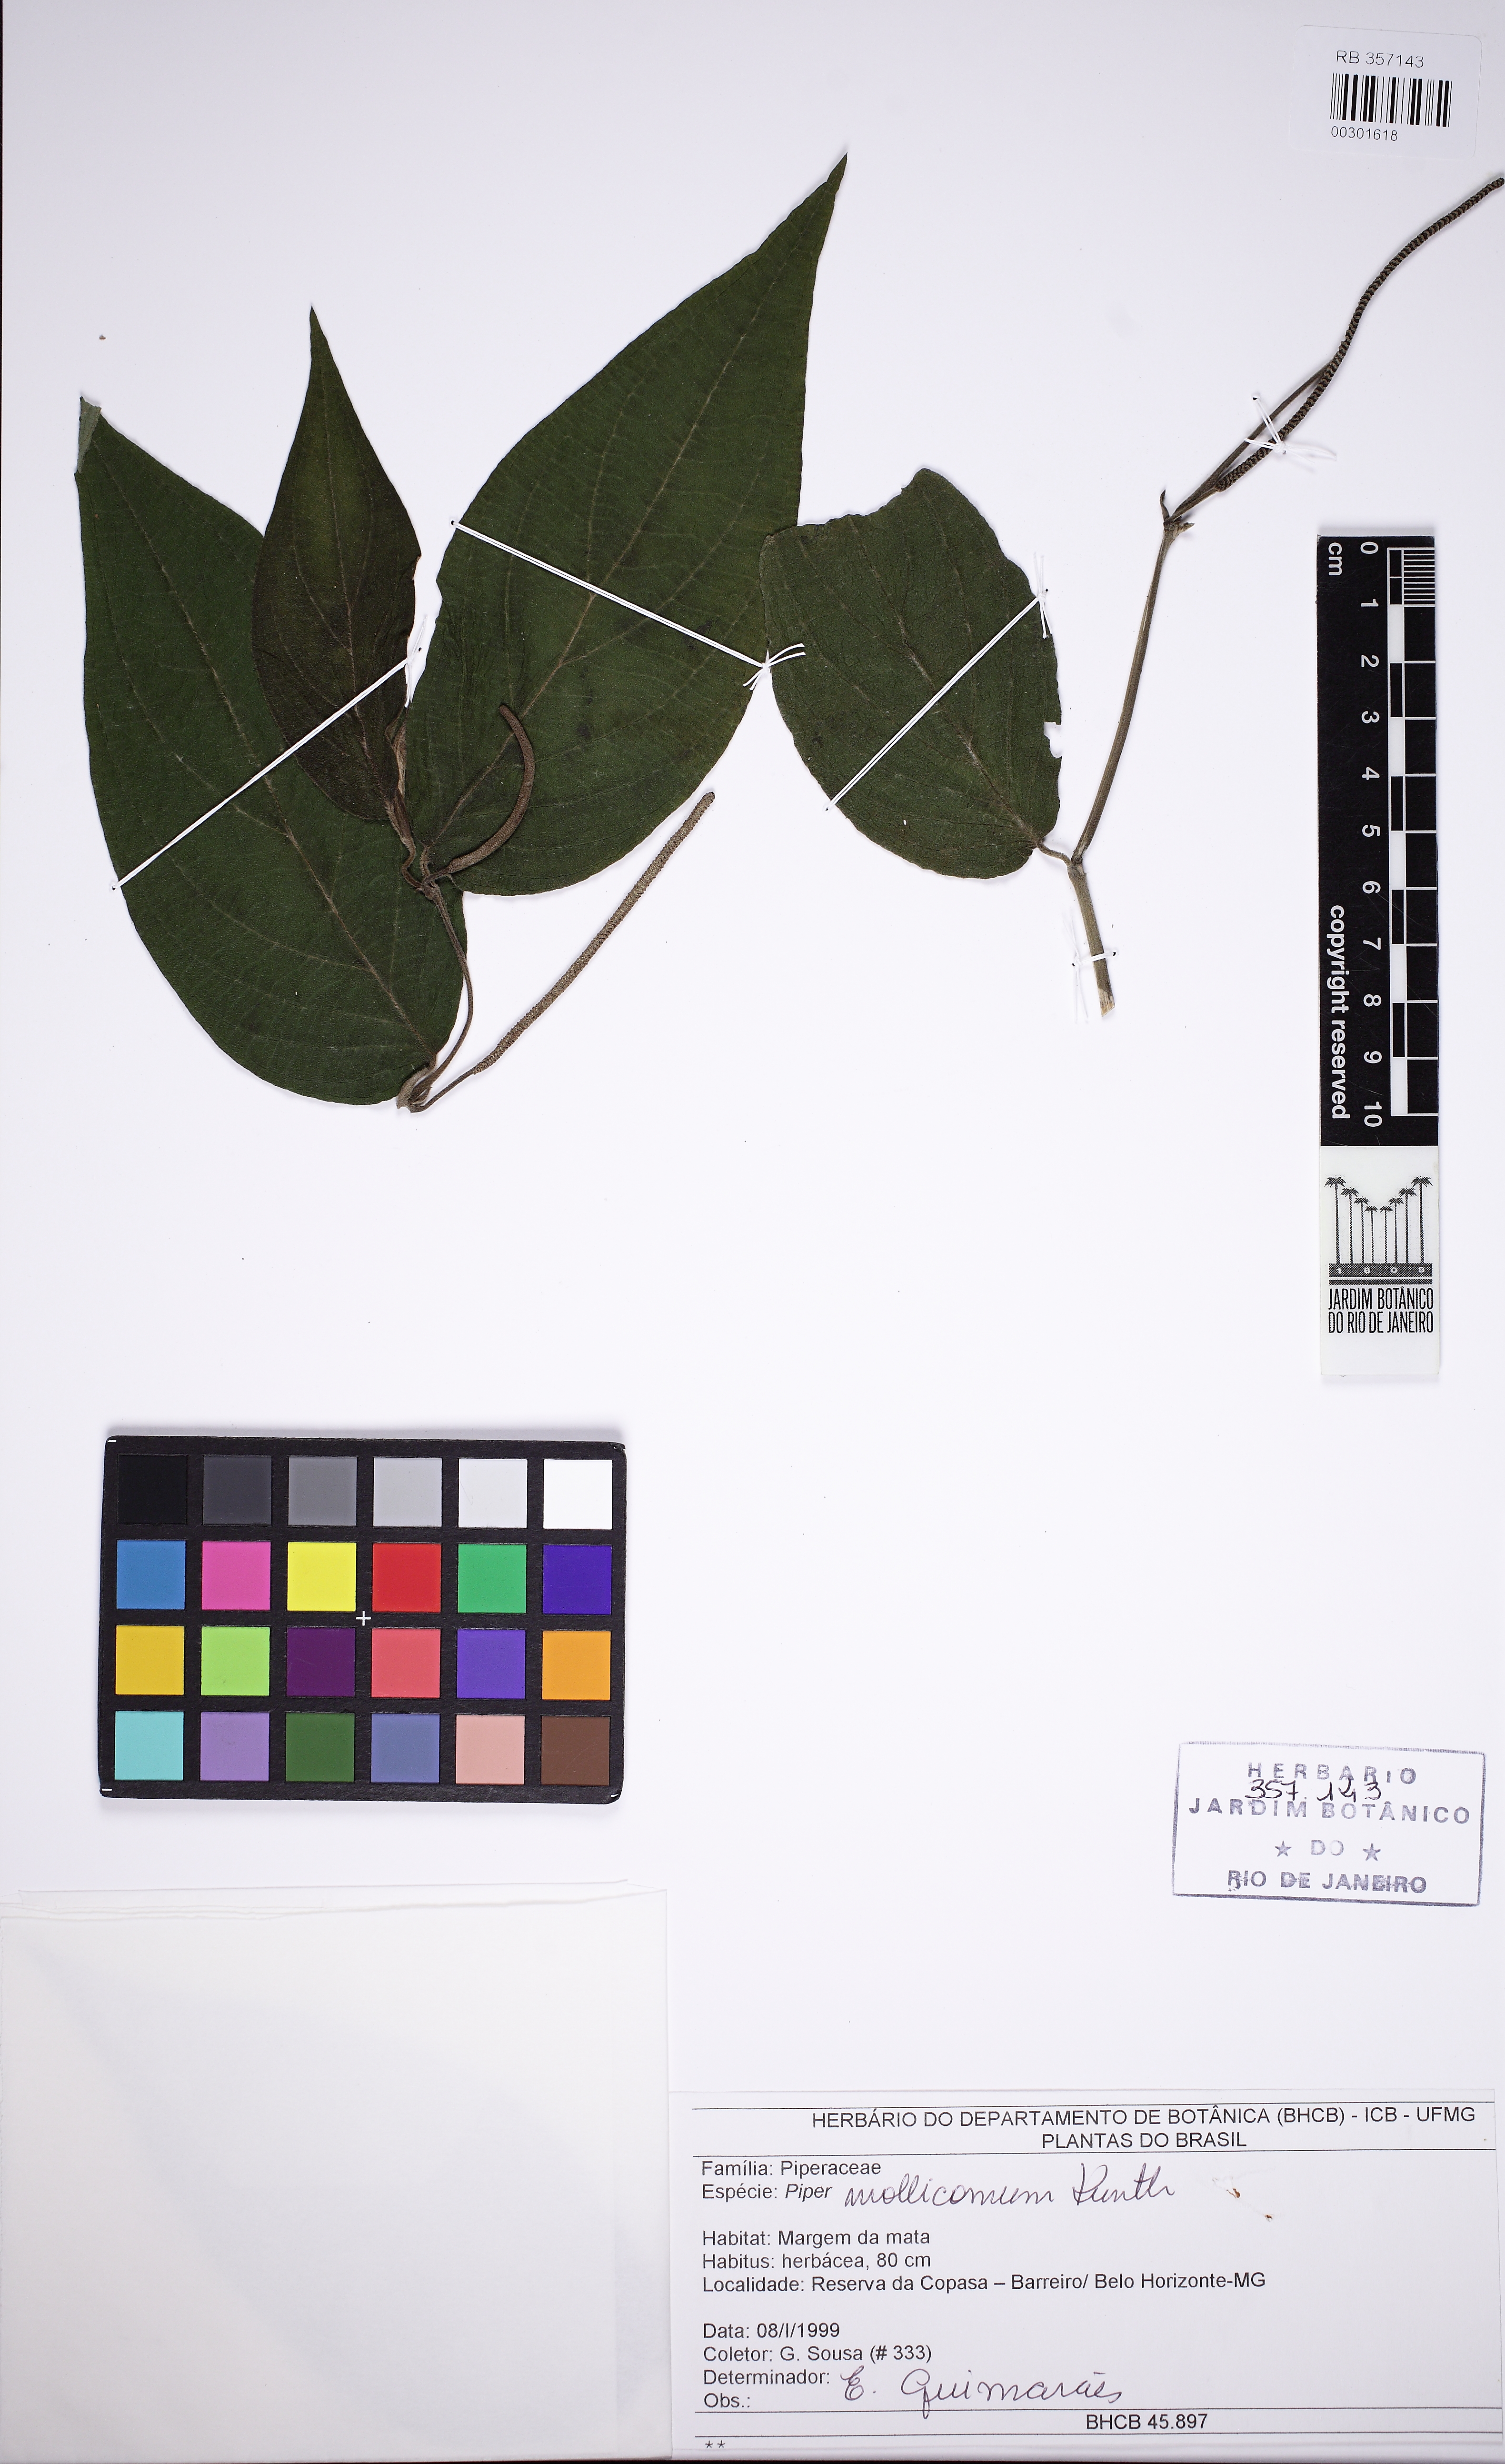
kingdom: Plantae
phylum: Tracheophyta
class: Magnoliopsida
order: Piperales
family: Piperaceae
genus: Piper
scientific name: Piper mollicomum
